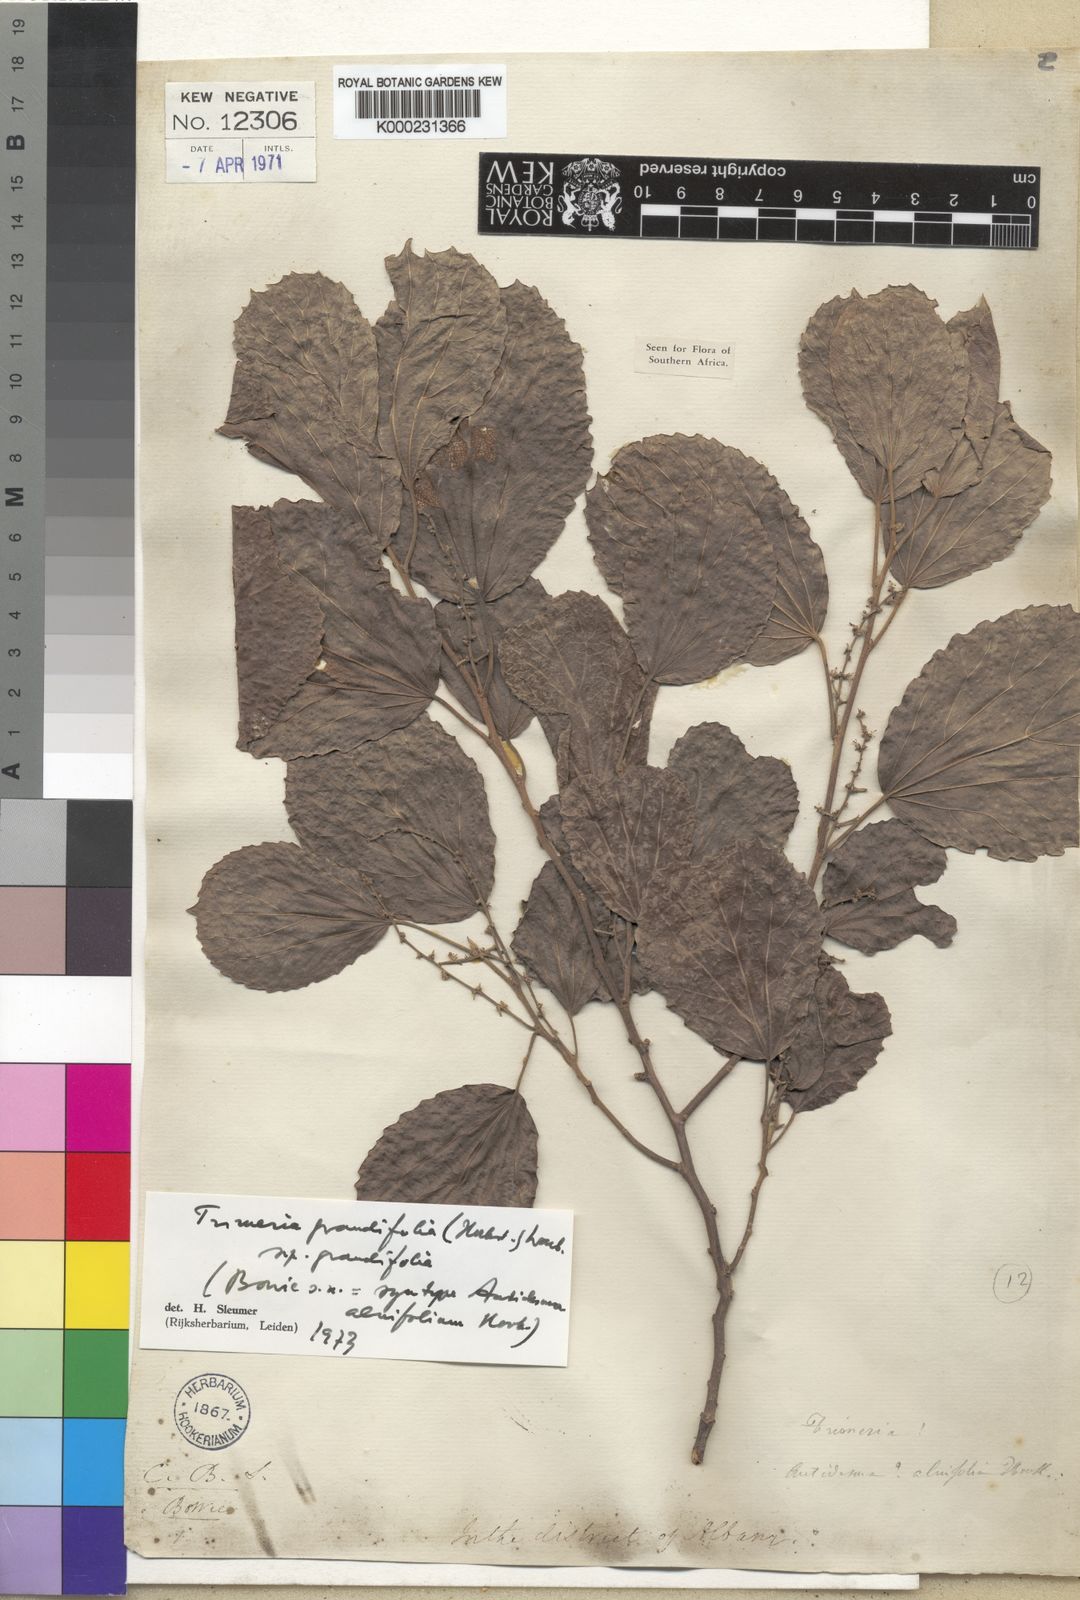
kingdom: Plantae
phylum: Tracheophyta
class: Magnoliopsida
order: Malpighiales
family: Salicaceae
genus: Trimeria
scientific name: Trimeria grandifolia
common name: Wild mulberry
